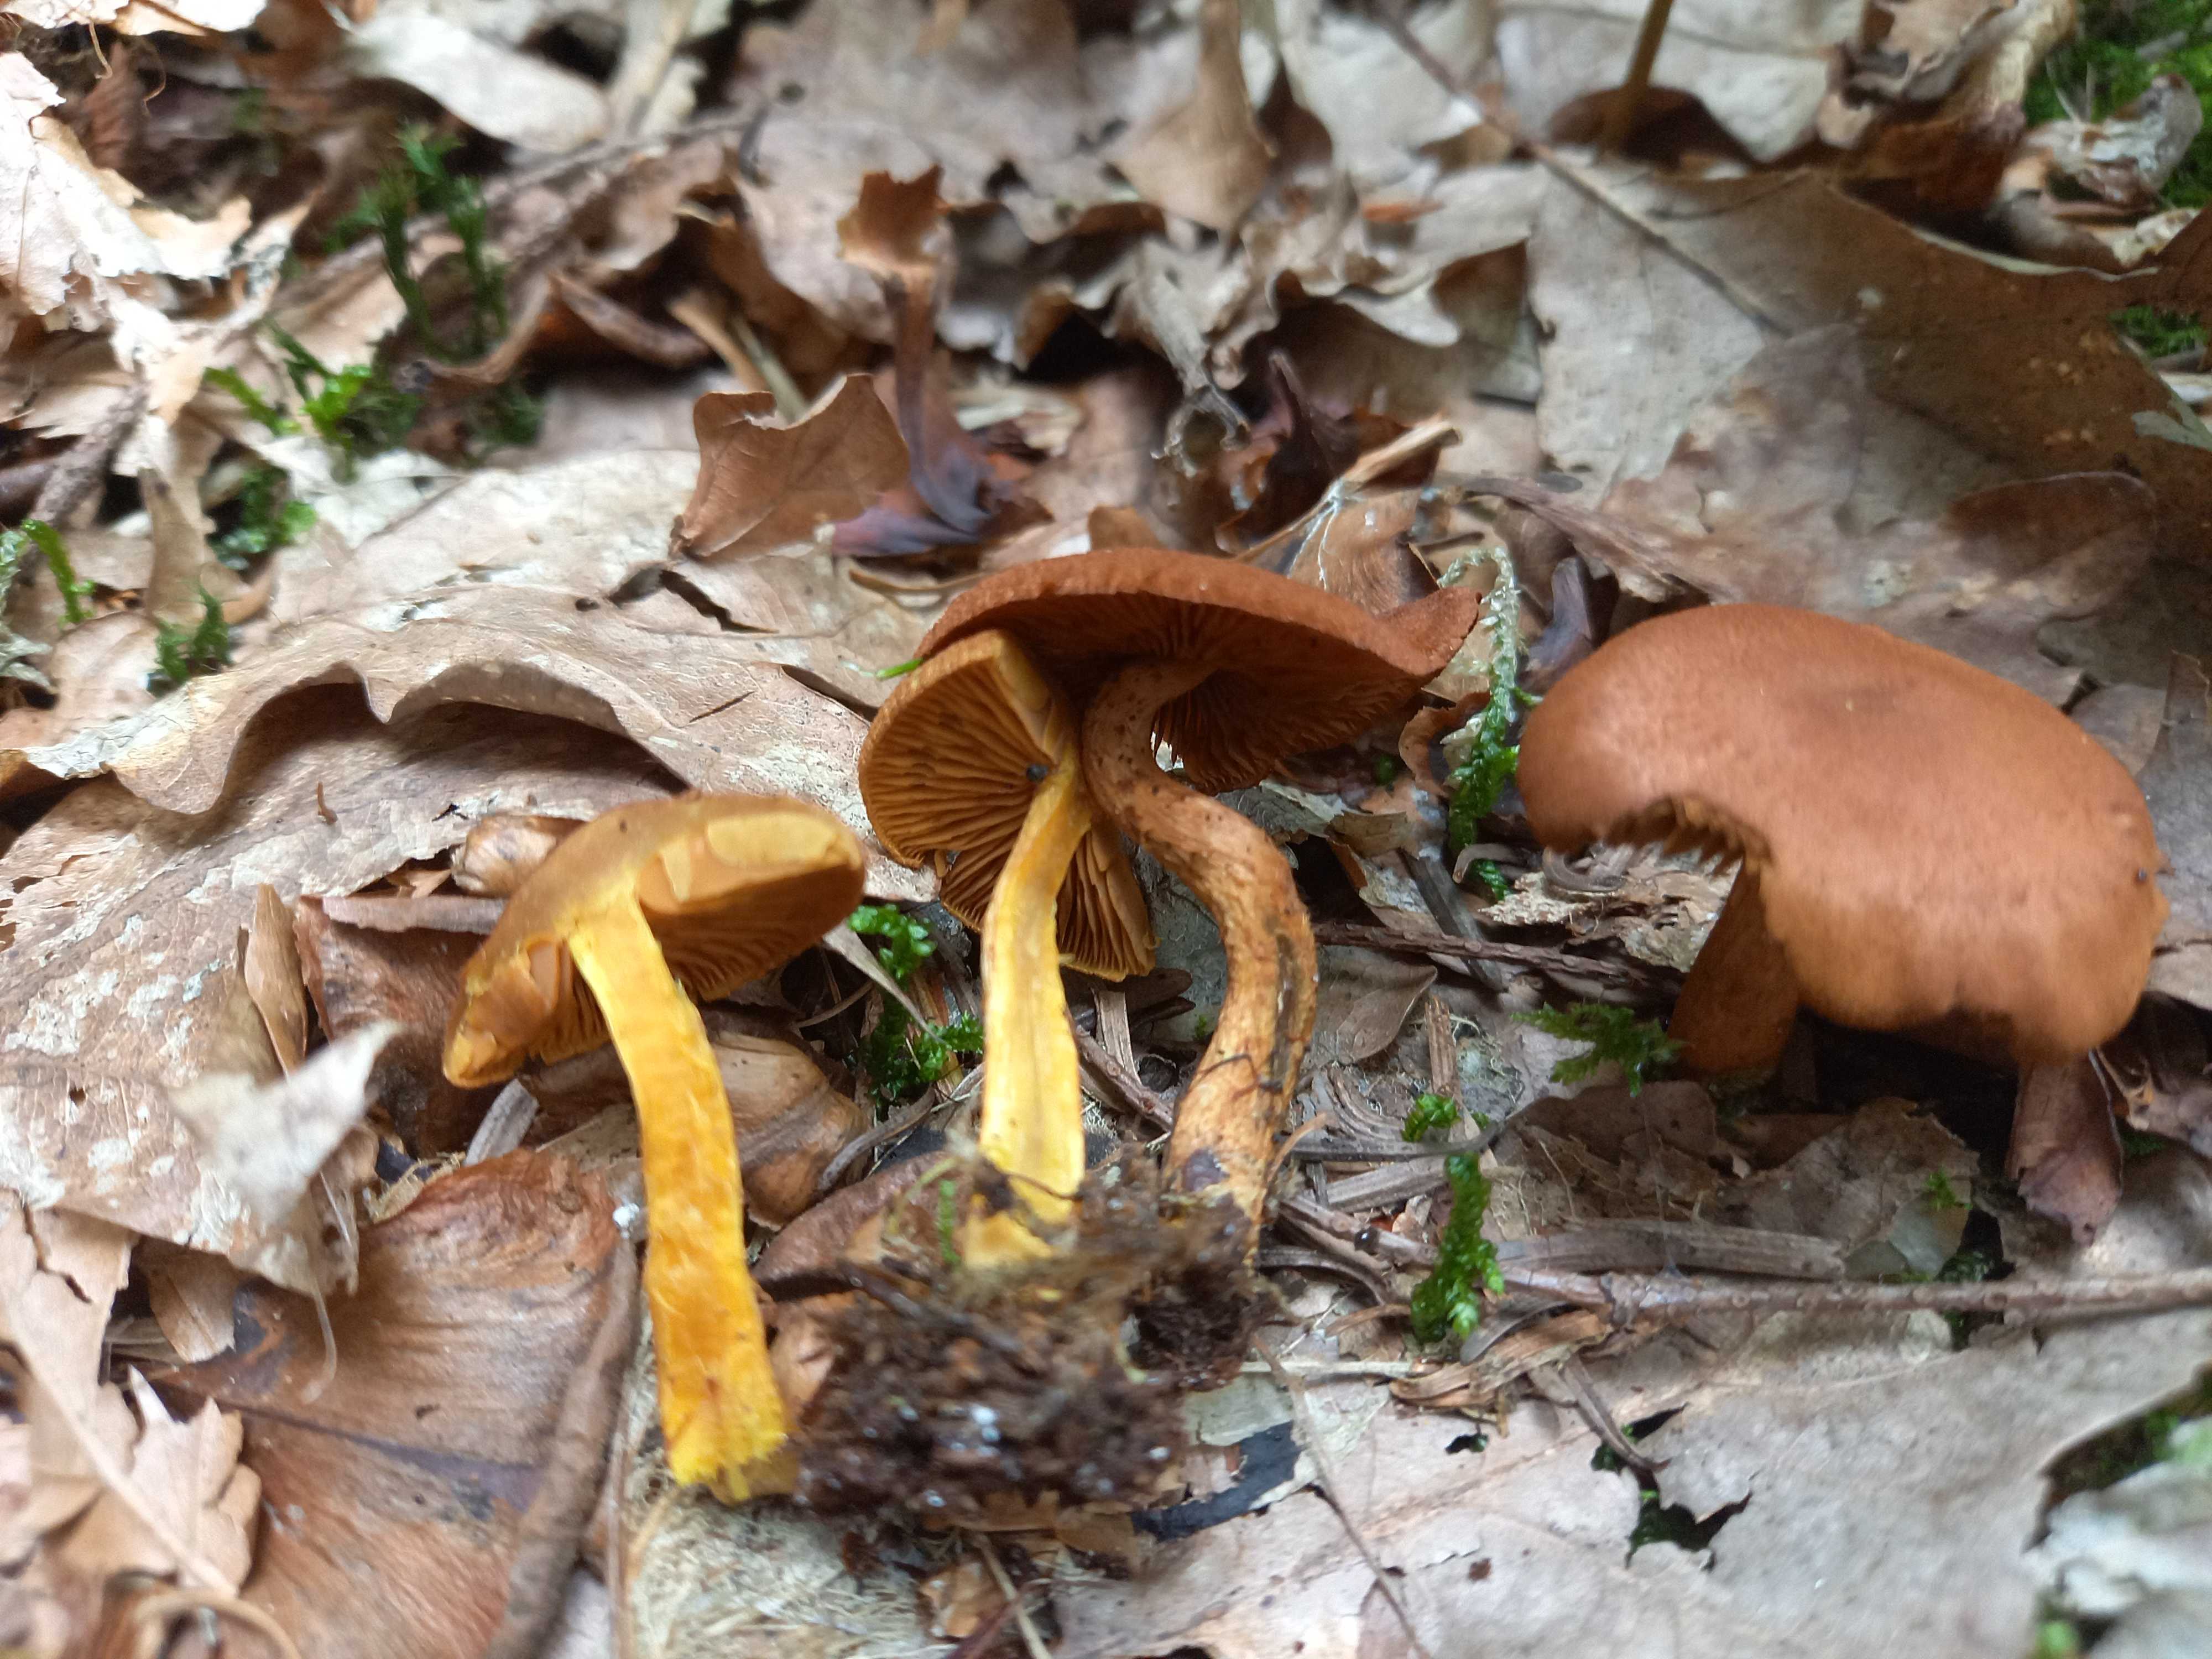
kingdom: Fungi
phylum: Basidiomycota
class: Agaricomycetes
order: Agaricales
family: Cortinariaceae
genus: Cortinarius
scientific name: Cortinarius cinnamomeus
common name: kanel-slørhat
